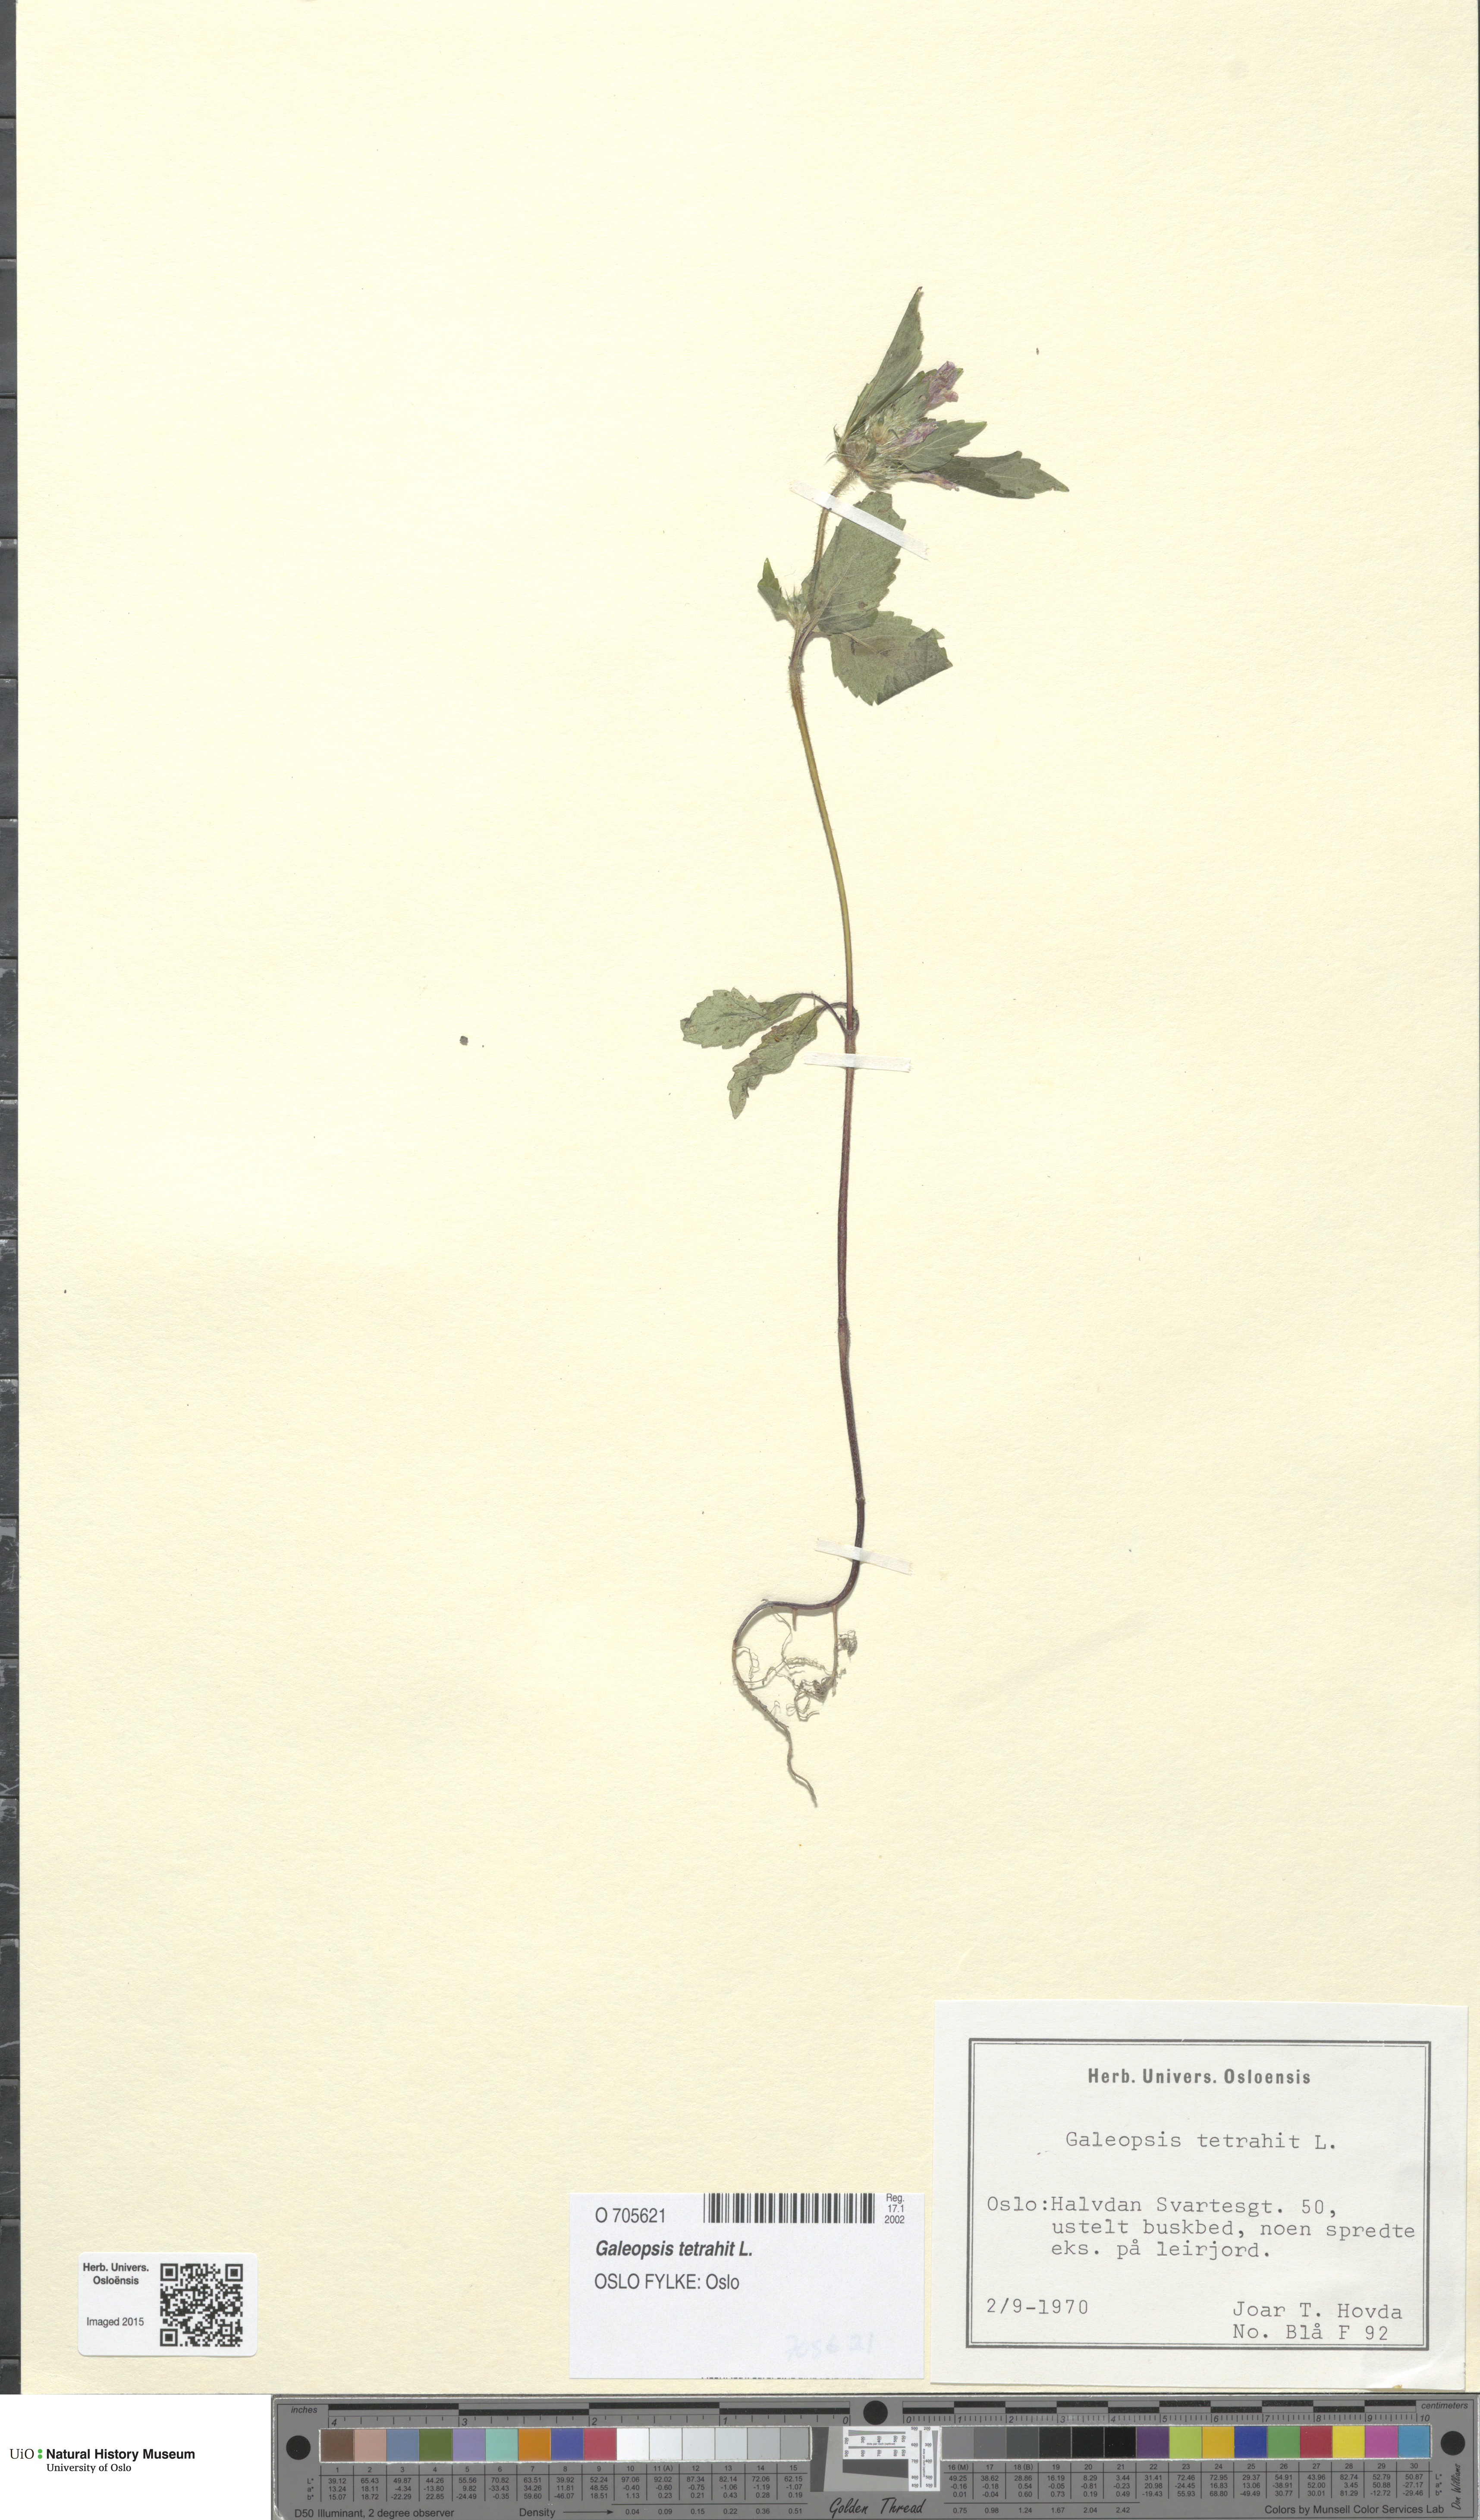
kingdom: Plantae
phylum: Tracheophyta
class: Magnoliopsida
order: Lamiales
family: Lamiaceae
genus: Galeopsis
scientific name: Galeopsis tetrahit
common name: Common hemp-nettle
